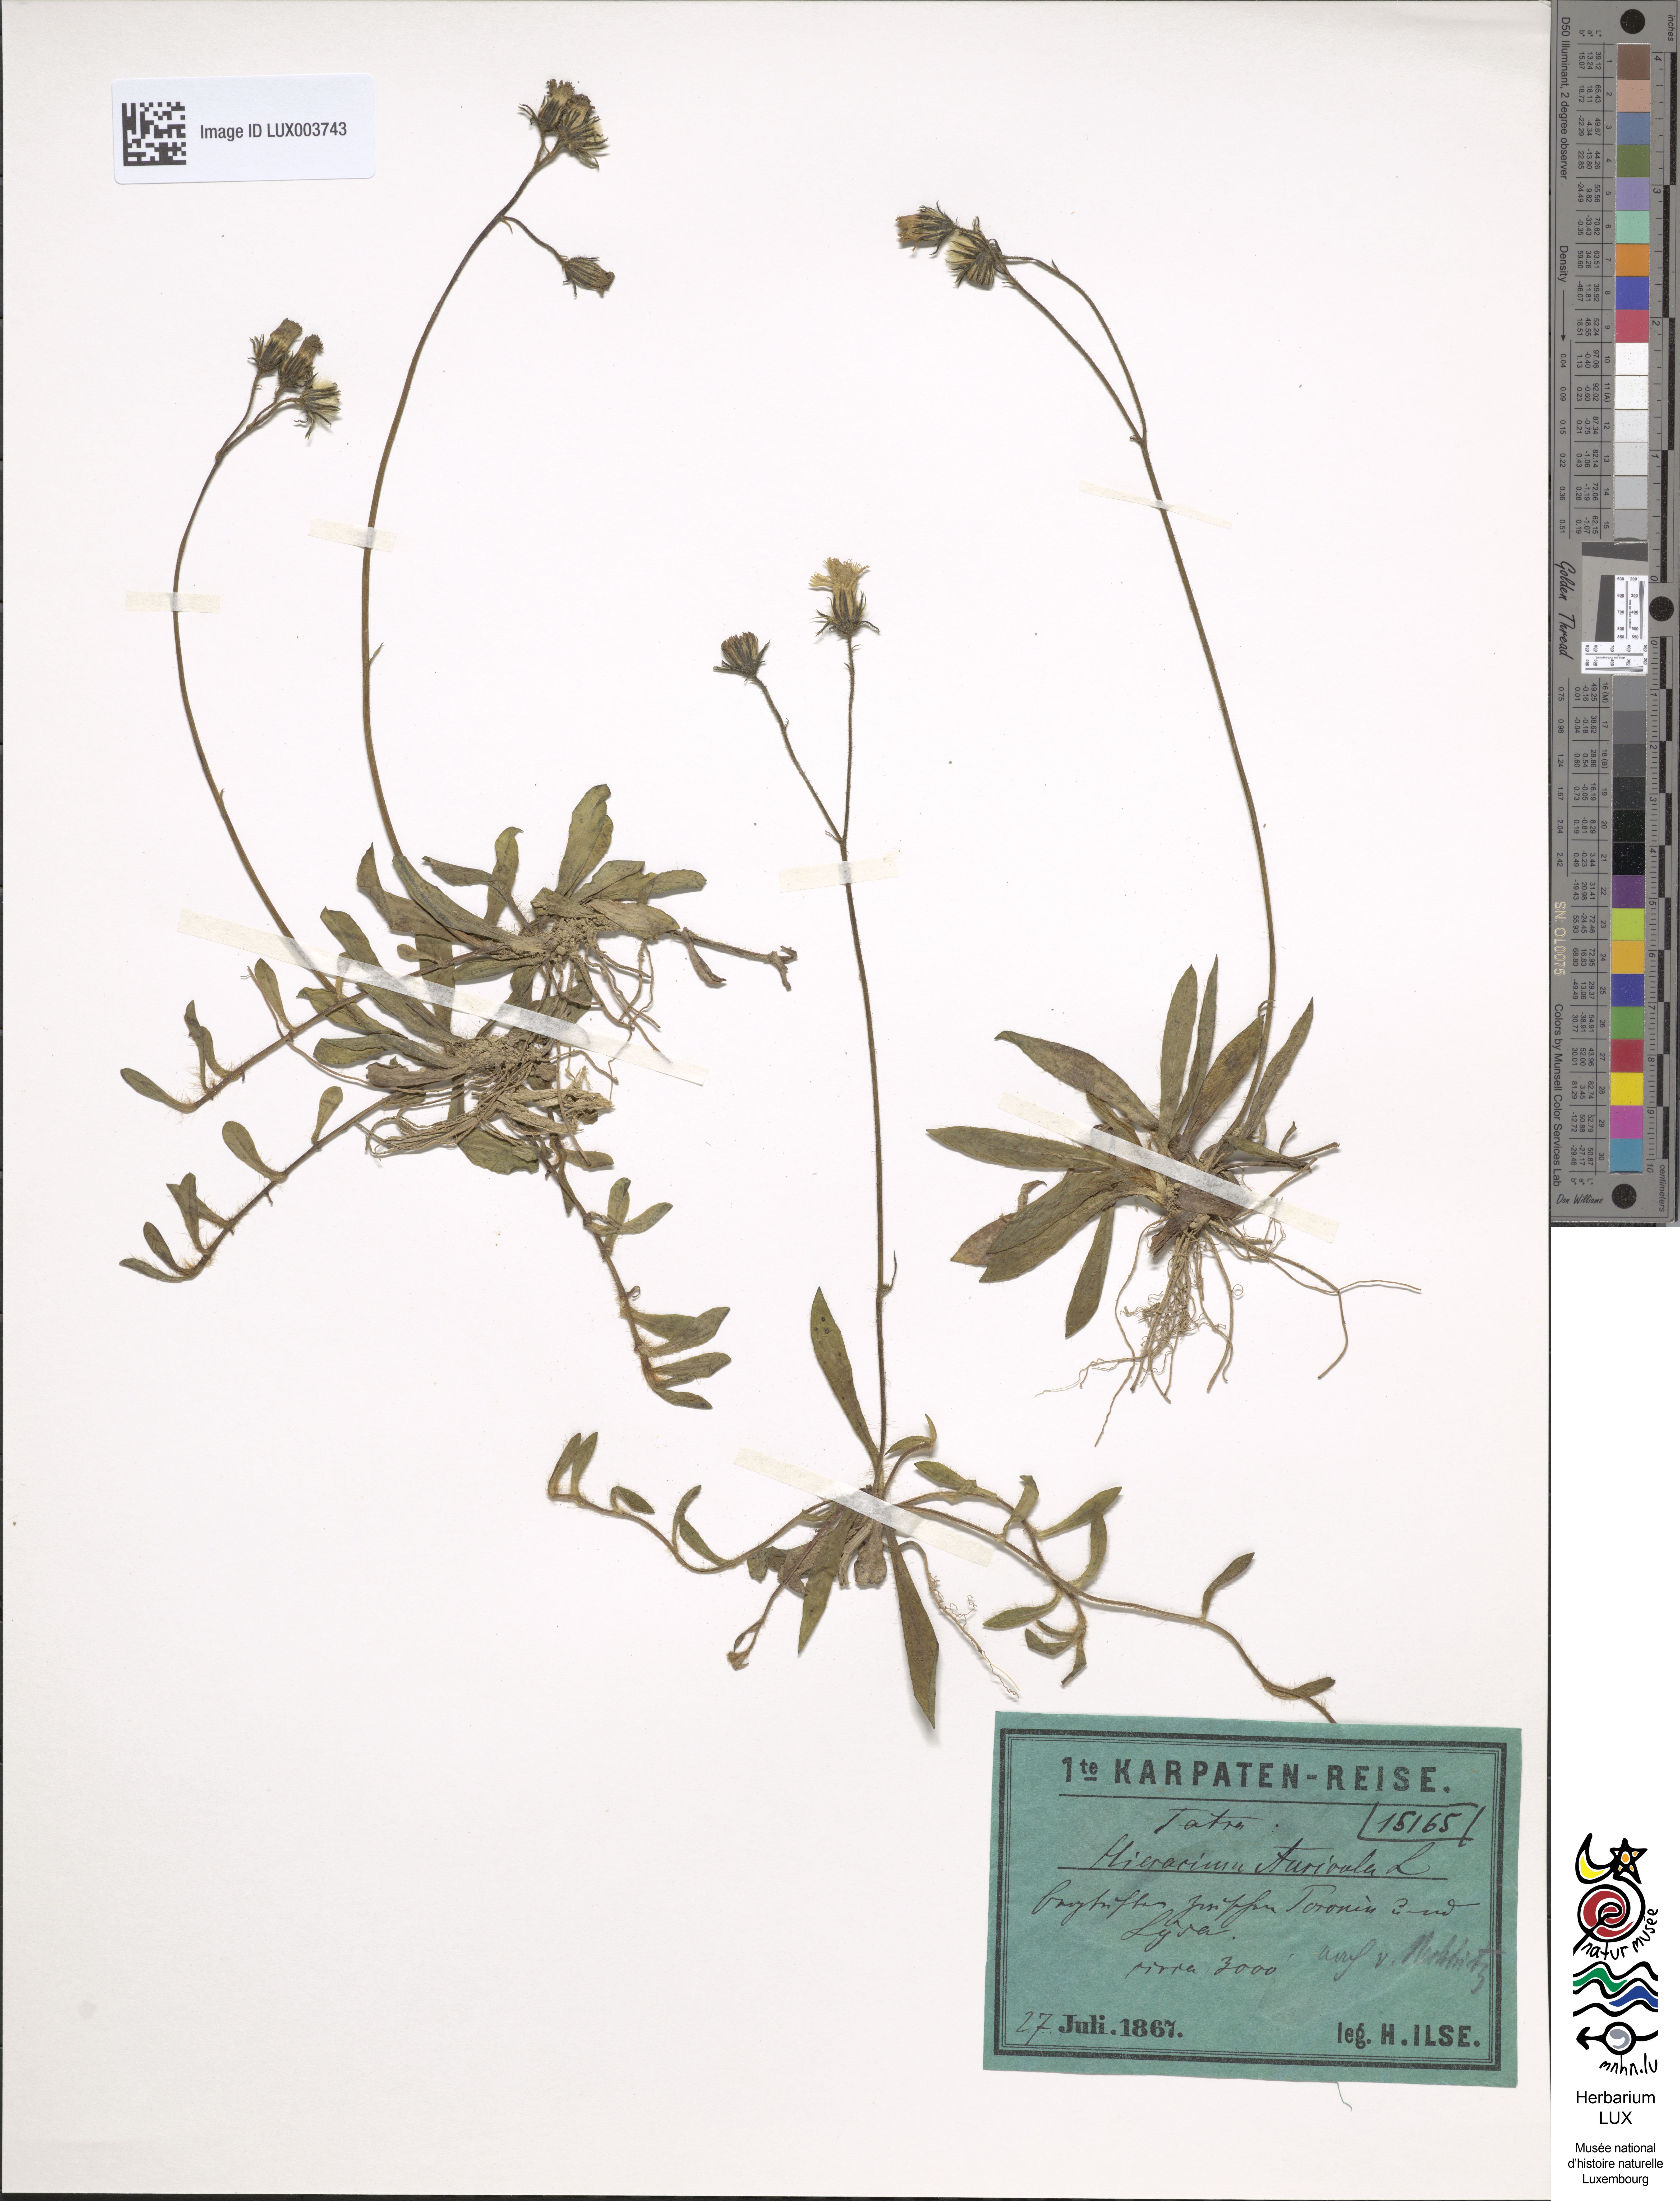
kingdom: Plantae
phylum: Tracheophyta
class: Magnoliopsida
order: Asterales
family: Asteraceae
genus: Pilosella
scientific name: Pilosella floribunda
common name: Glaucous hawkweed
